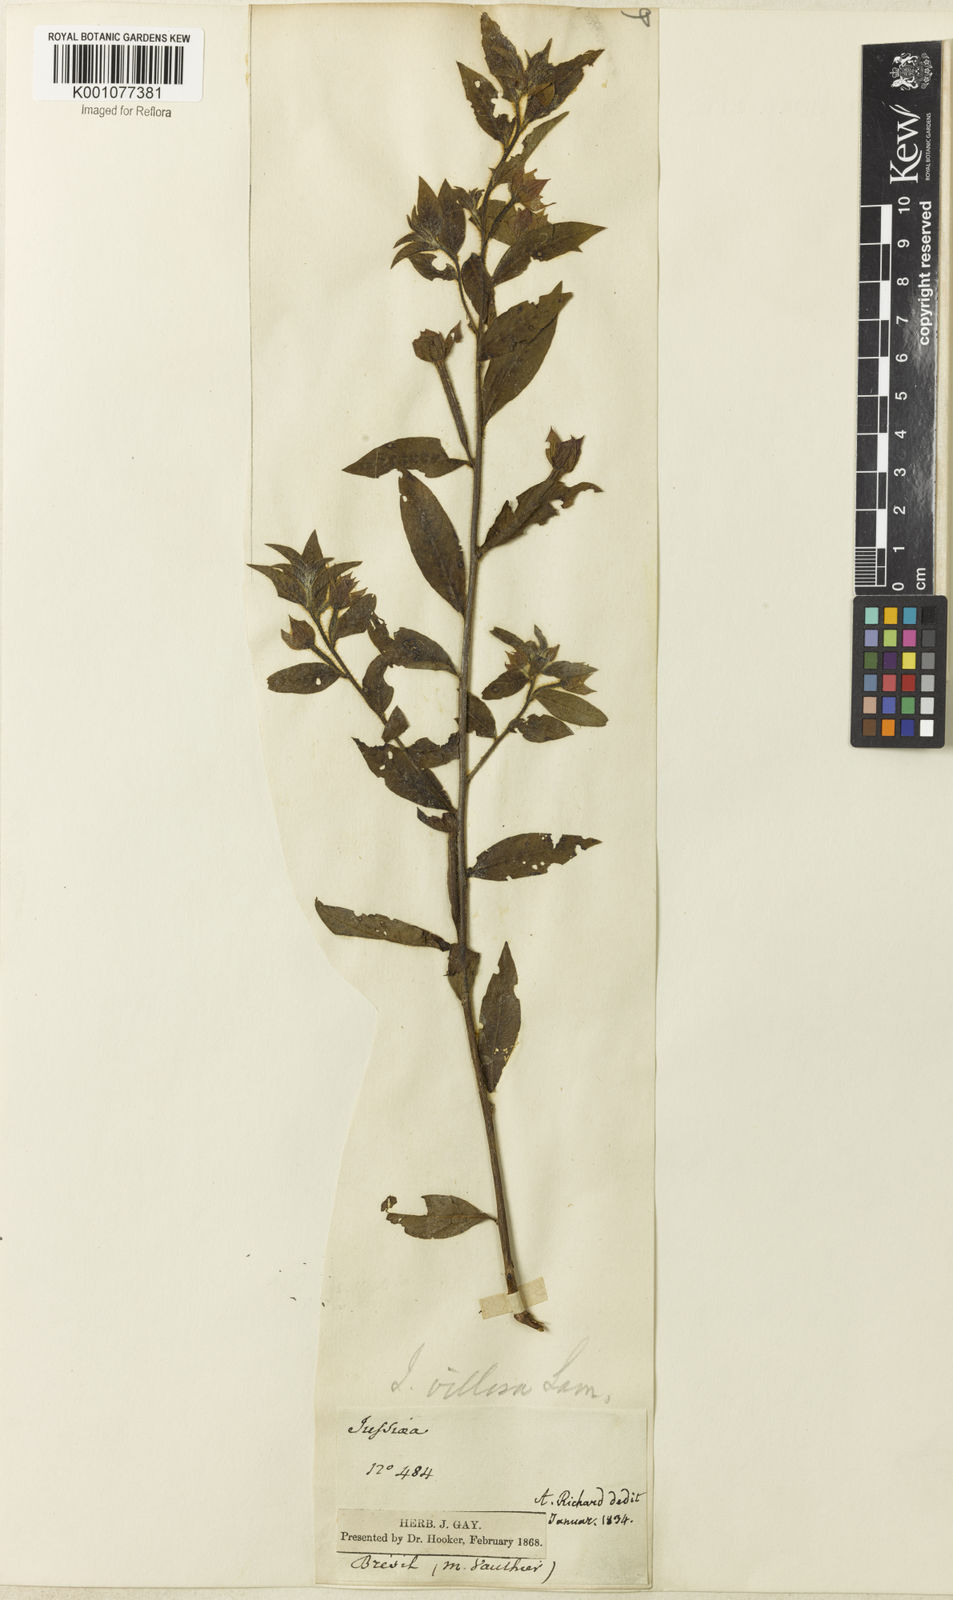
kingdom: Plantae
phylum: Tracheophyta
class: Magnoliopsida
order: Myrtales
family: Onagraceae
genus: Ludwigia
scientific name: Ludwigia octovalvis
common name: Water-primrose
